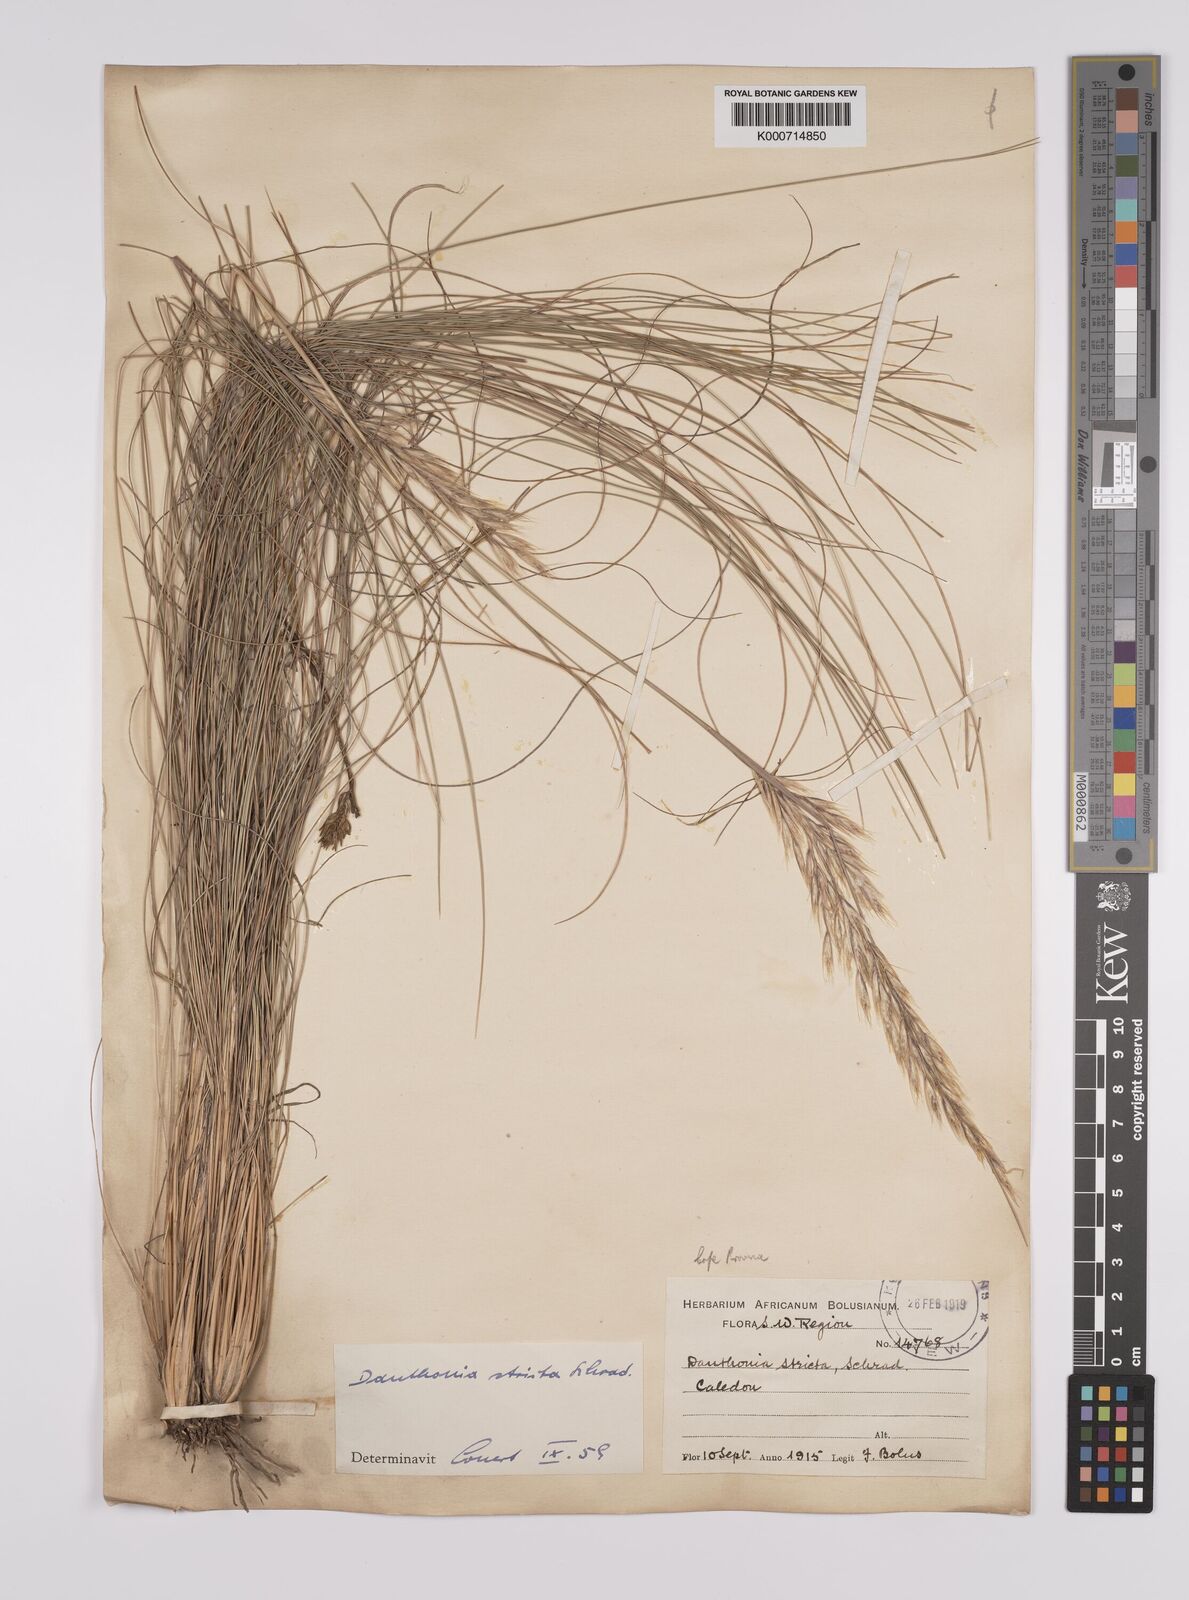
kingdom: Plantae
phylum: Tracheophyta
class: Liliopsida
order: Poales
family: Poaceae
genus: Rytidosperma
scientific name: Rytidosperma
